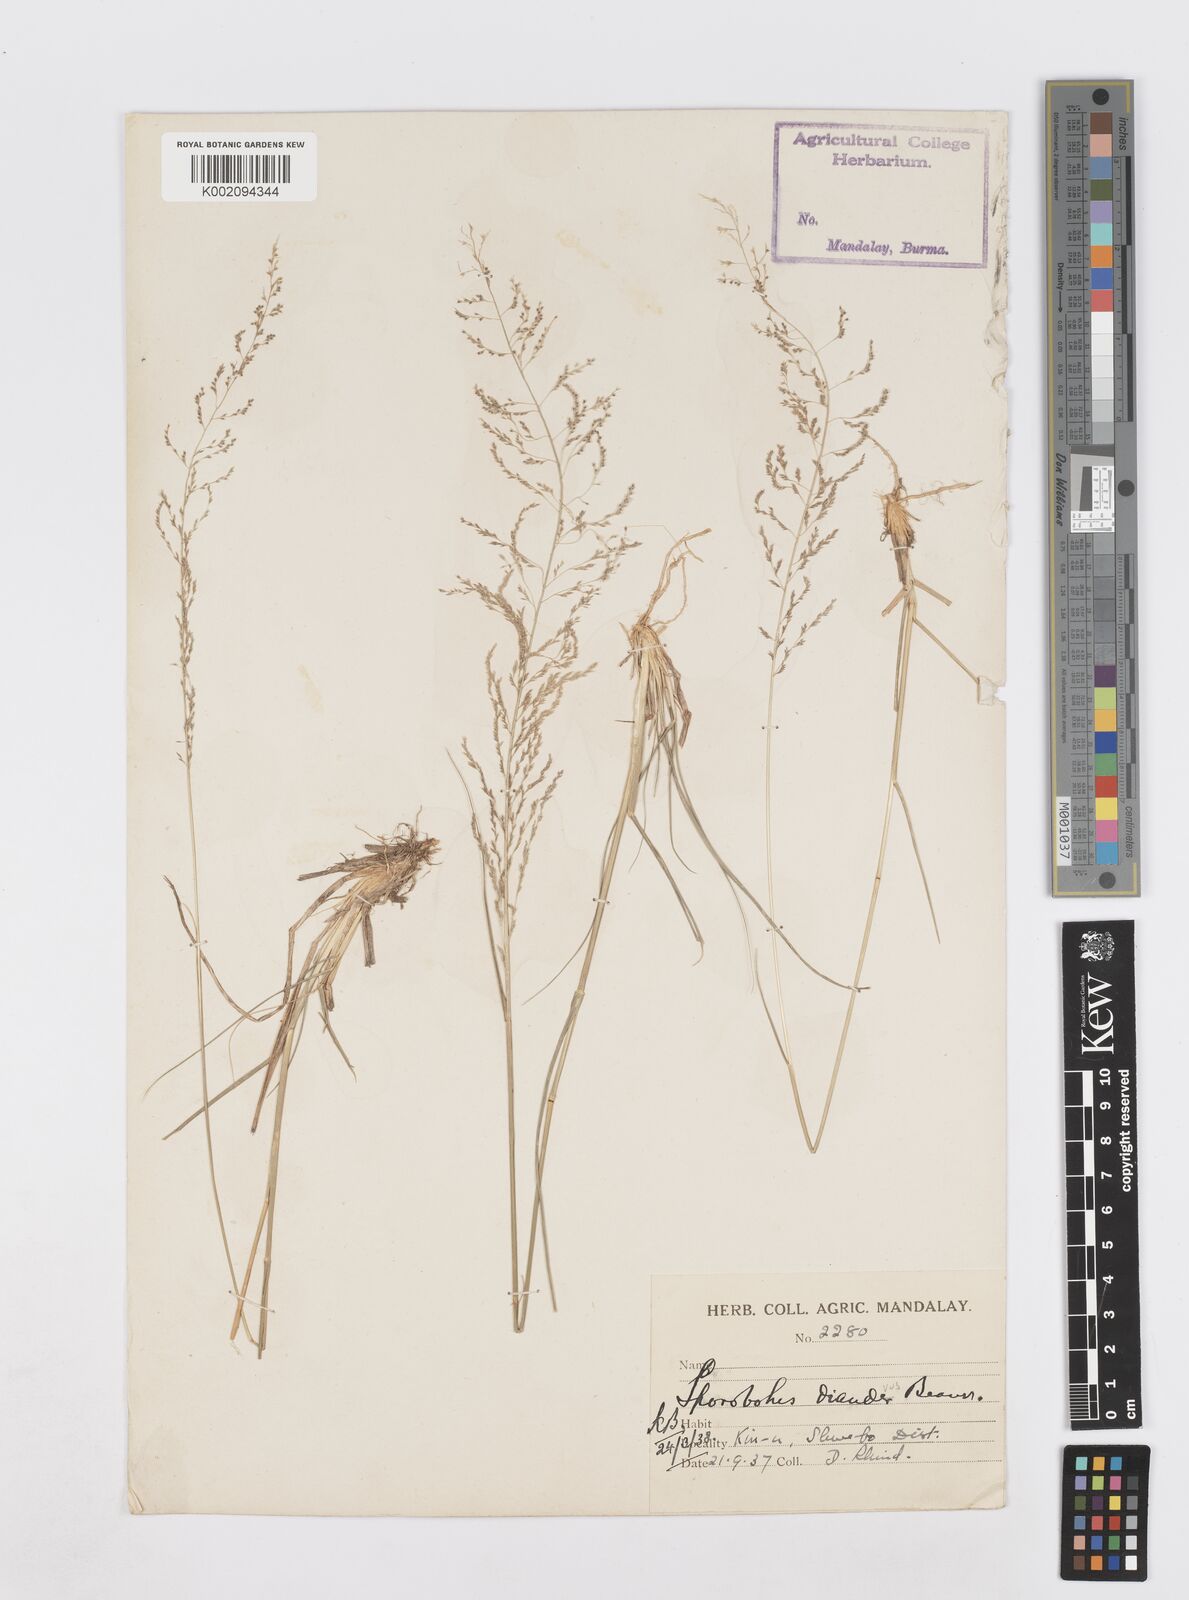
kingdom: Plantae
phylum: Tracheophyta
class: Liliopsida
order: Poales
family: Poaceae
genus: Sporobolus
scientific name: Sporobolus diandrus
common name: Tussock dropseed
